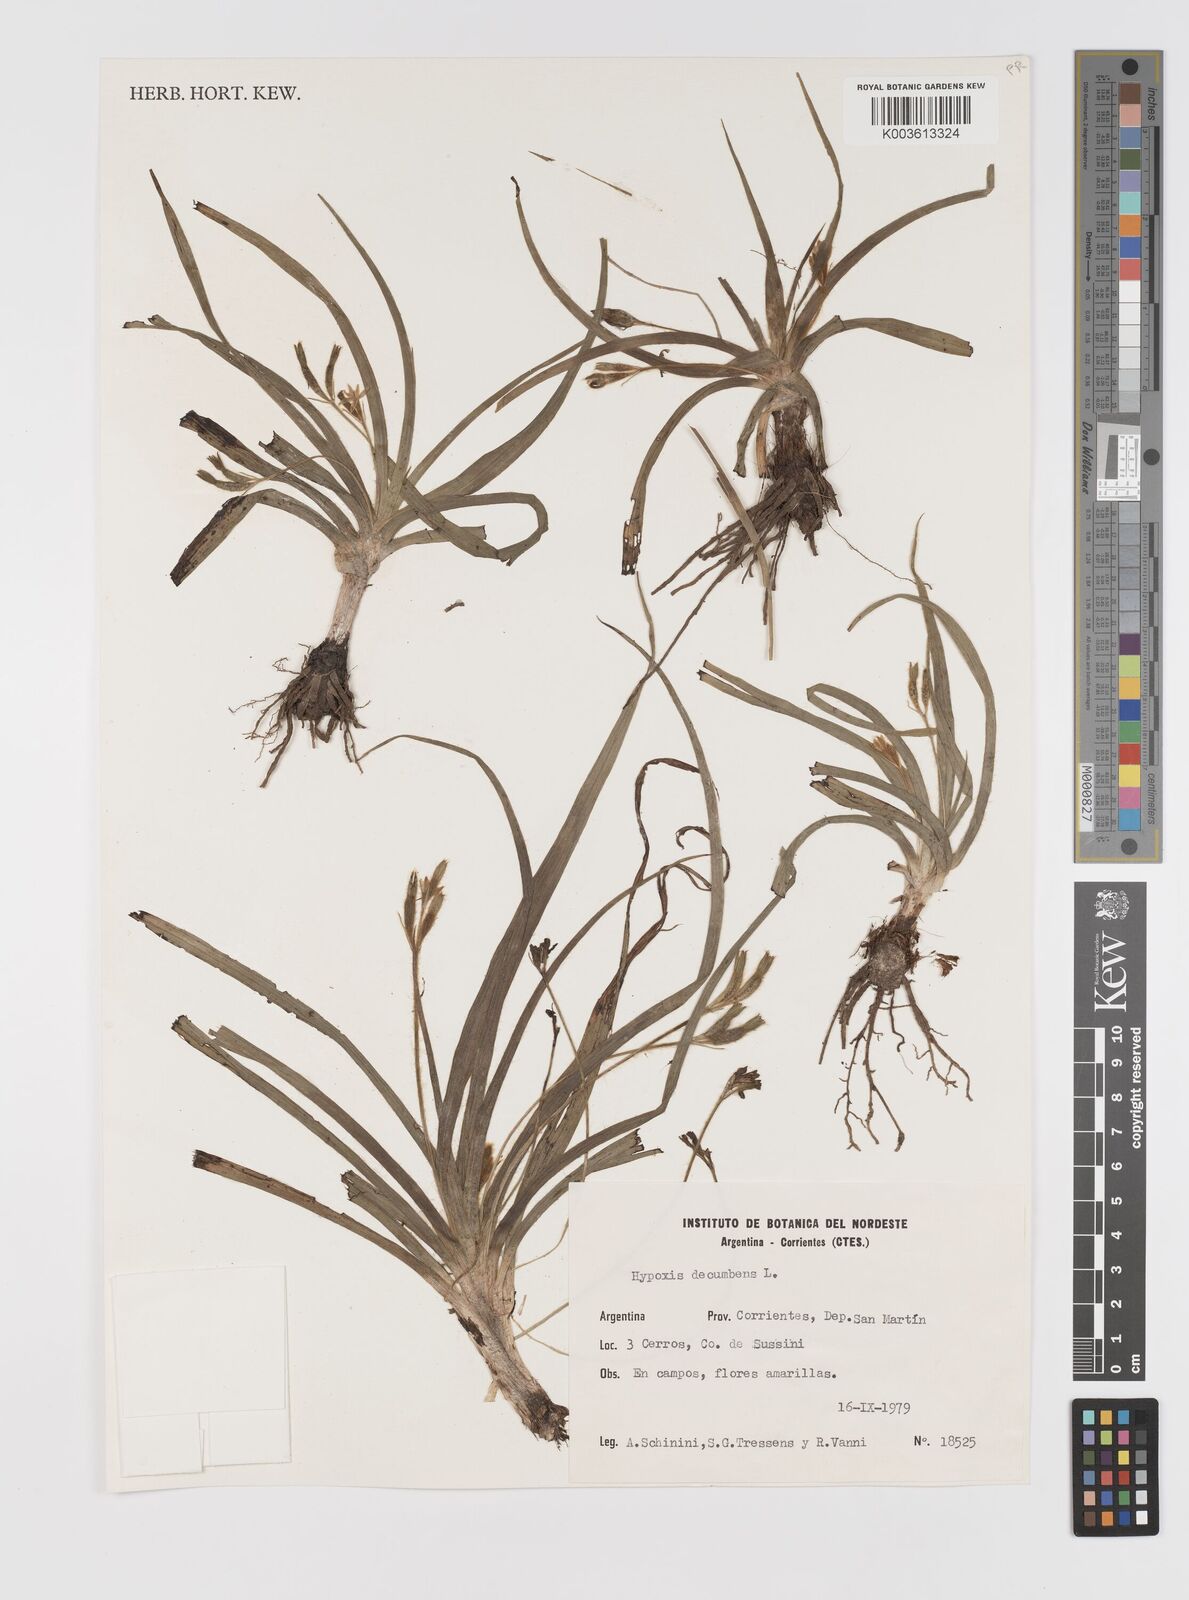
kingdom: Plantae
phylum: Tracheophyta
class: Liliopsida
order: Asparagales
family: Hypoxidaceae
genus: Hypoxis
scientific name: Hypoxis decumbens
